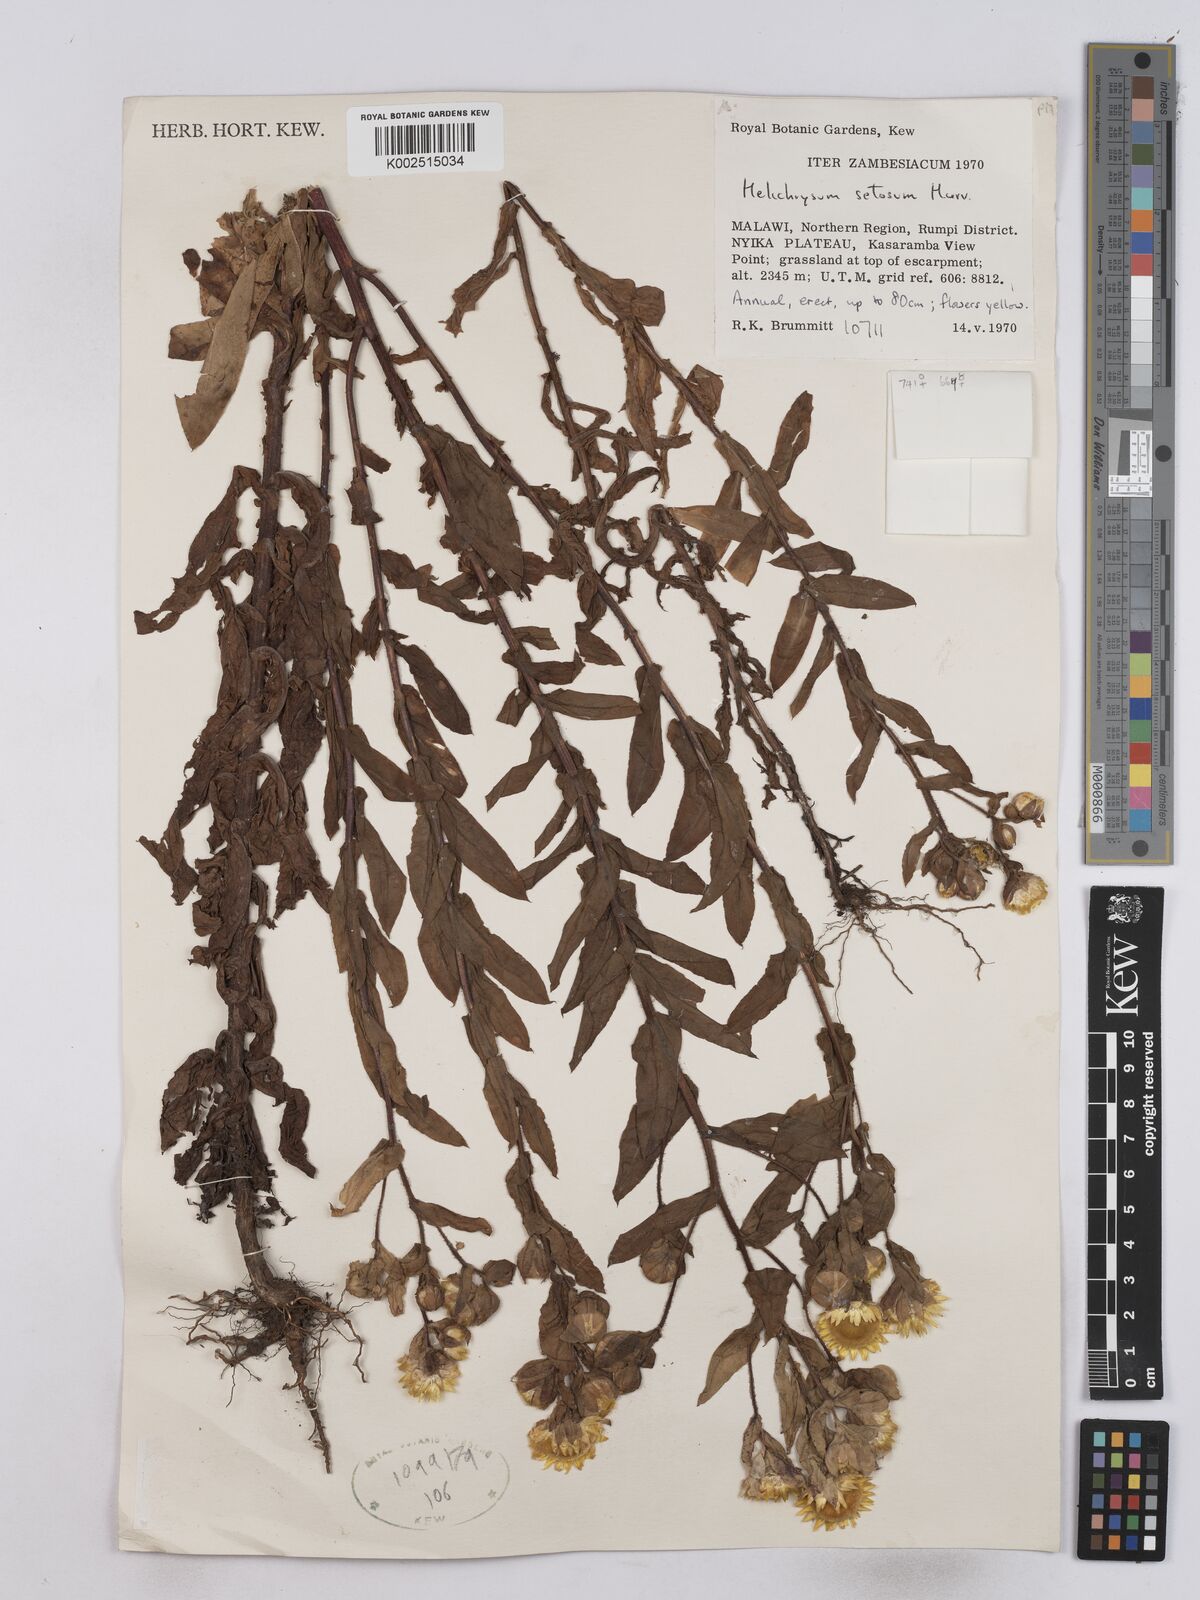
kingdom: Plantae
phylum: Tracheophyta
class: Magnoliopsida
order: Asterales
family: Asteraceae
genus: Helichrysum
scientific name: Helichrysum setosum
